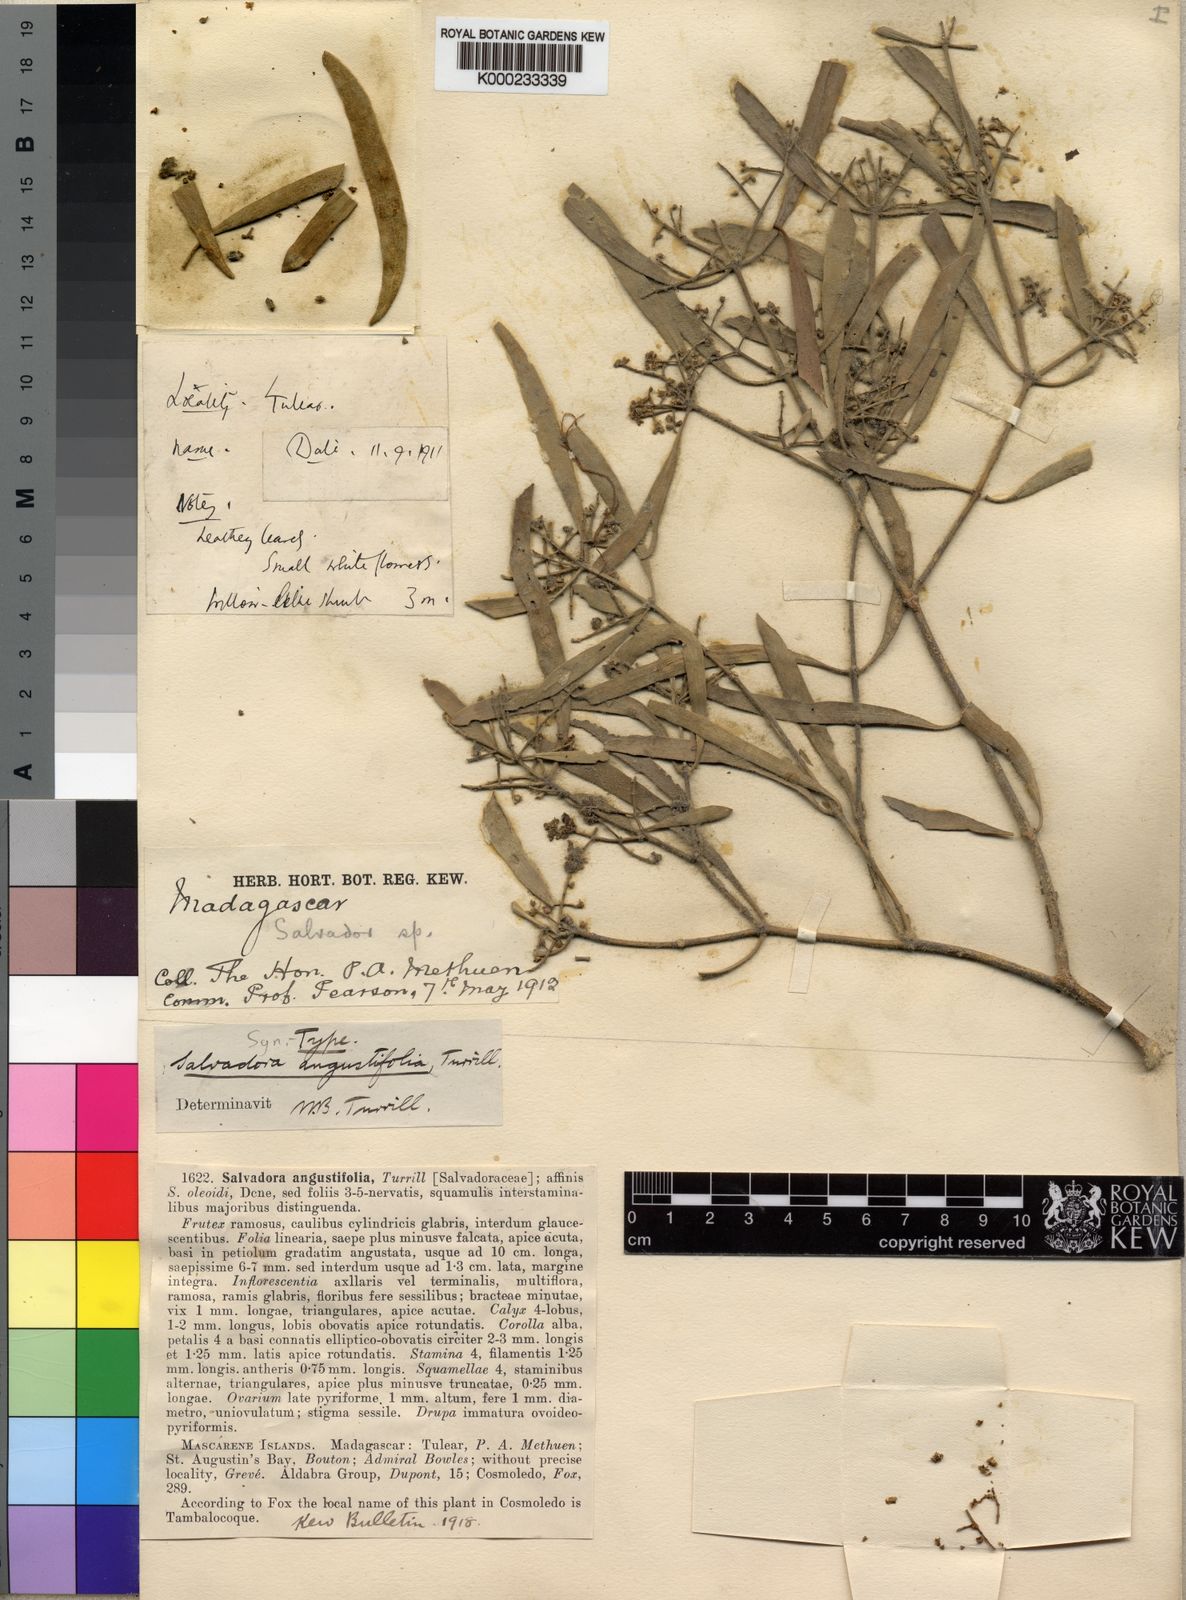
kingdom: Plantae
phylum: Tracheophyta
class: Magnoliopsida
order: Brassicales
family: Salvadoraceae
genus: Salvadora
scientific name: Salvadora angustifolia
